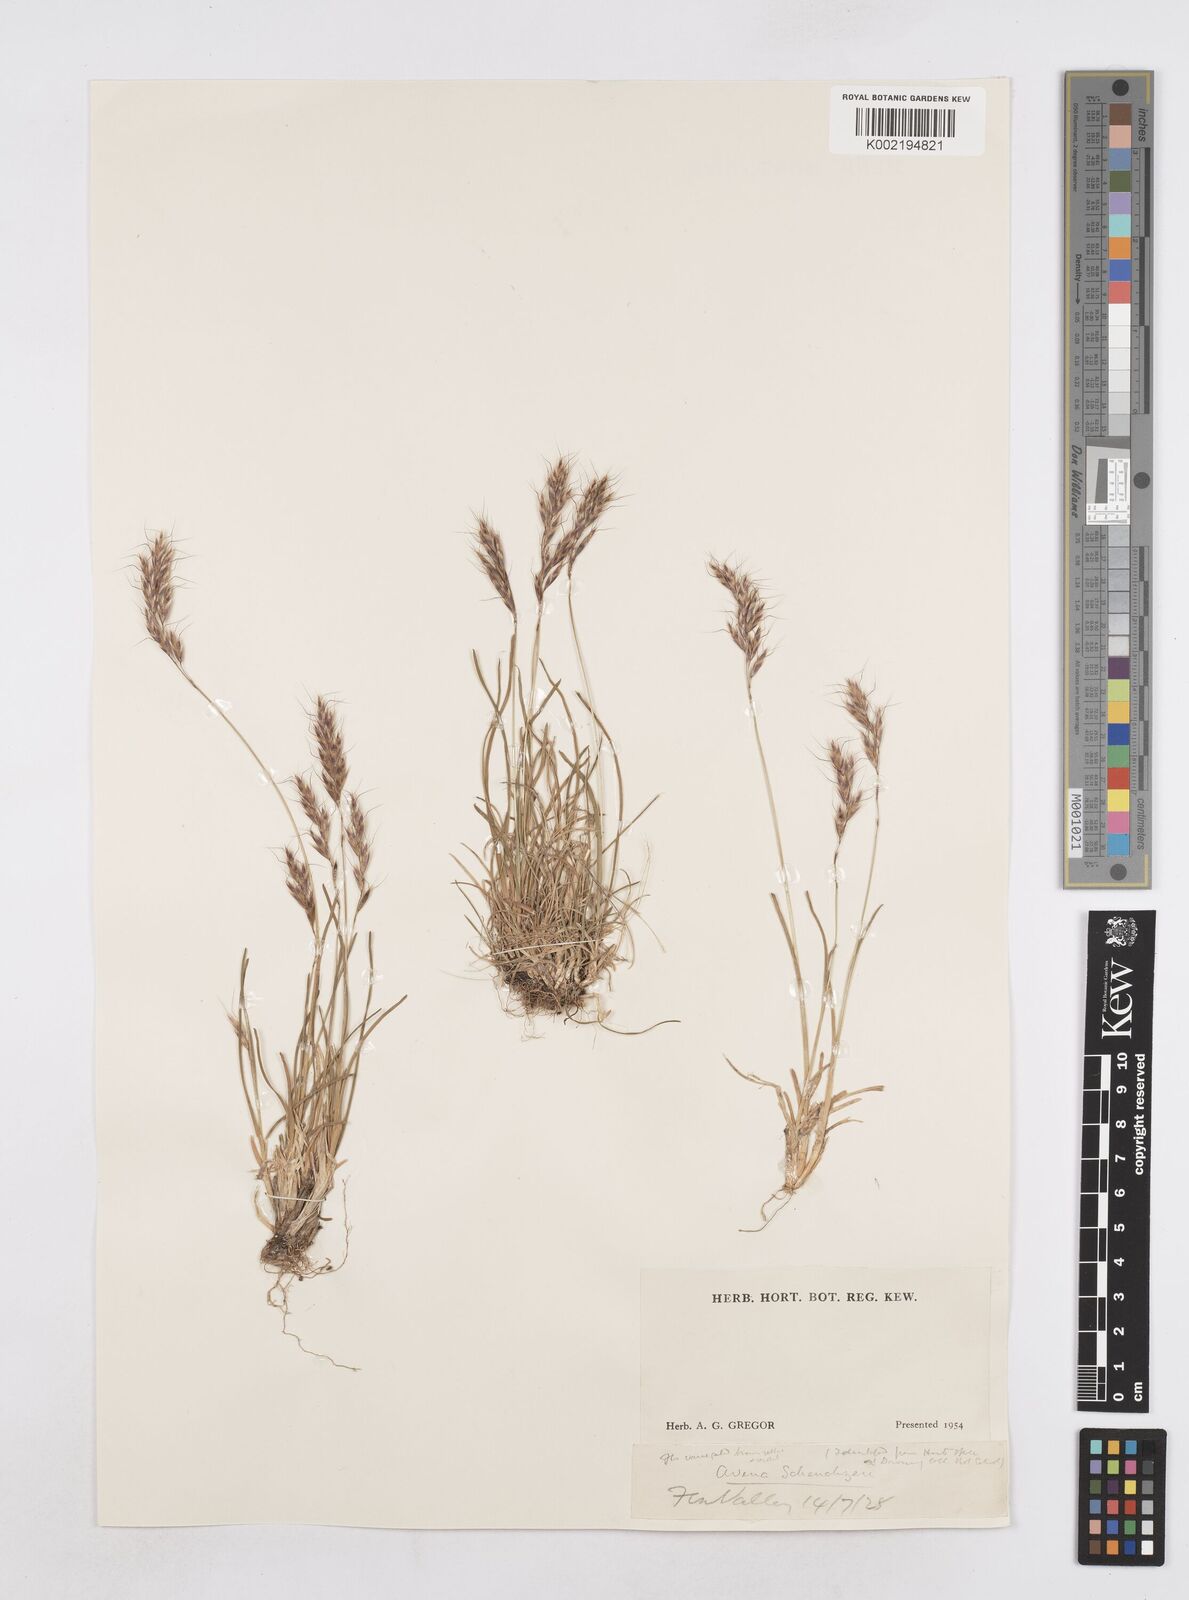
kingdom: Plantae
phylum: Tracheophyta
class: Liliopsida
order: Poales
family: Poaceae
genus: Helictotrichon
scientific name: Helictotrichon
